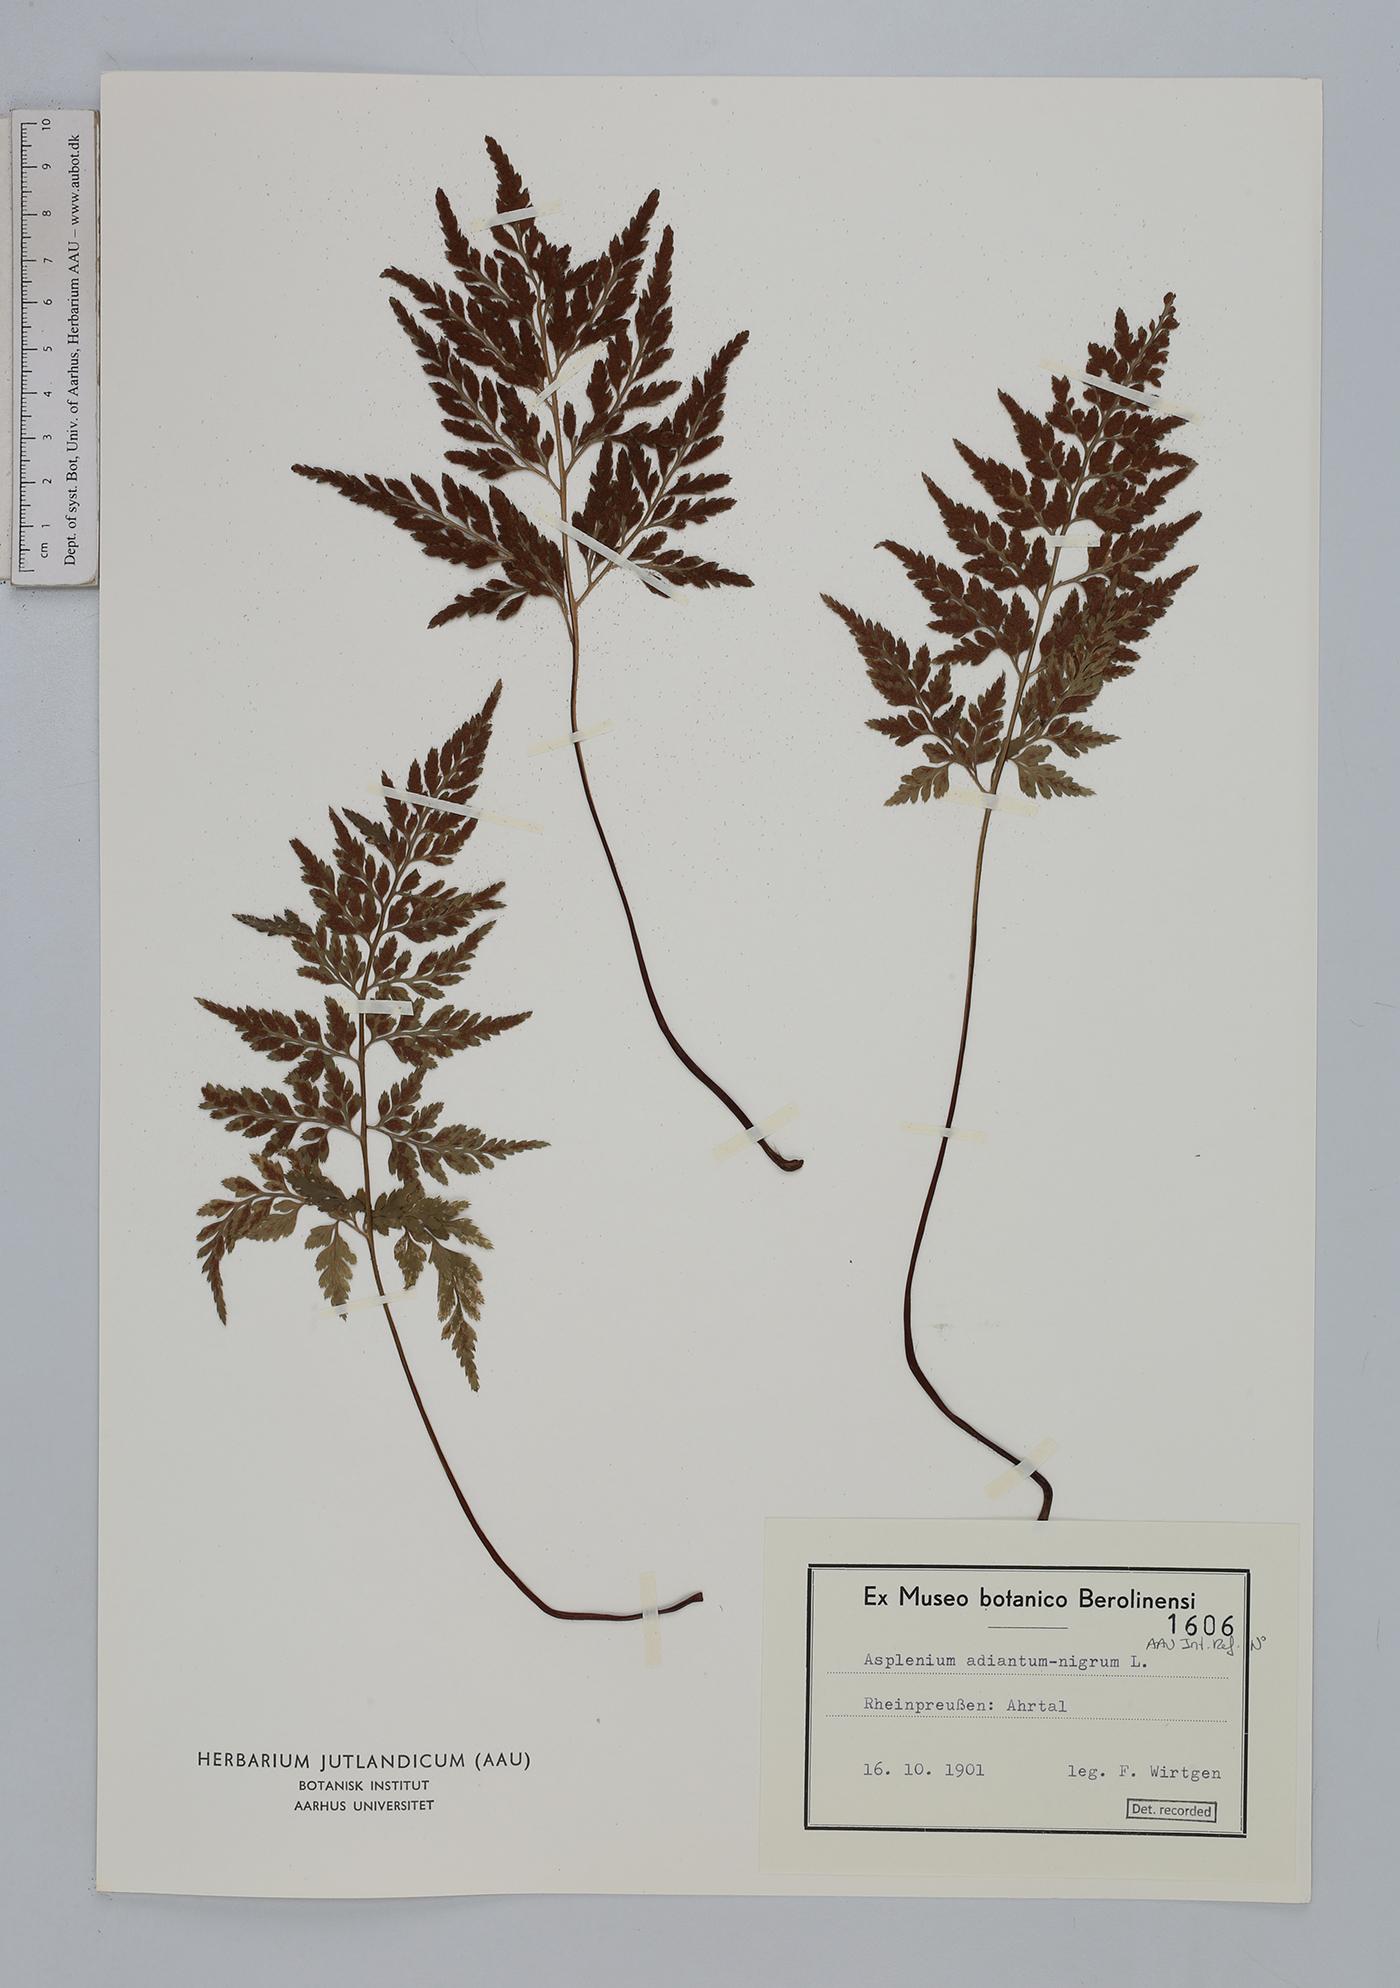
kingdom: Plantae
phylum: Tracheophyta
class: Polypodiopsida
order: Polypodiales
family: Aspleniaceae
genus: Asplenium
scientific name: Asplenium adiantum-nigrum
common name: Black spleenwort
